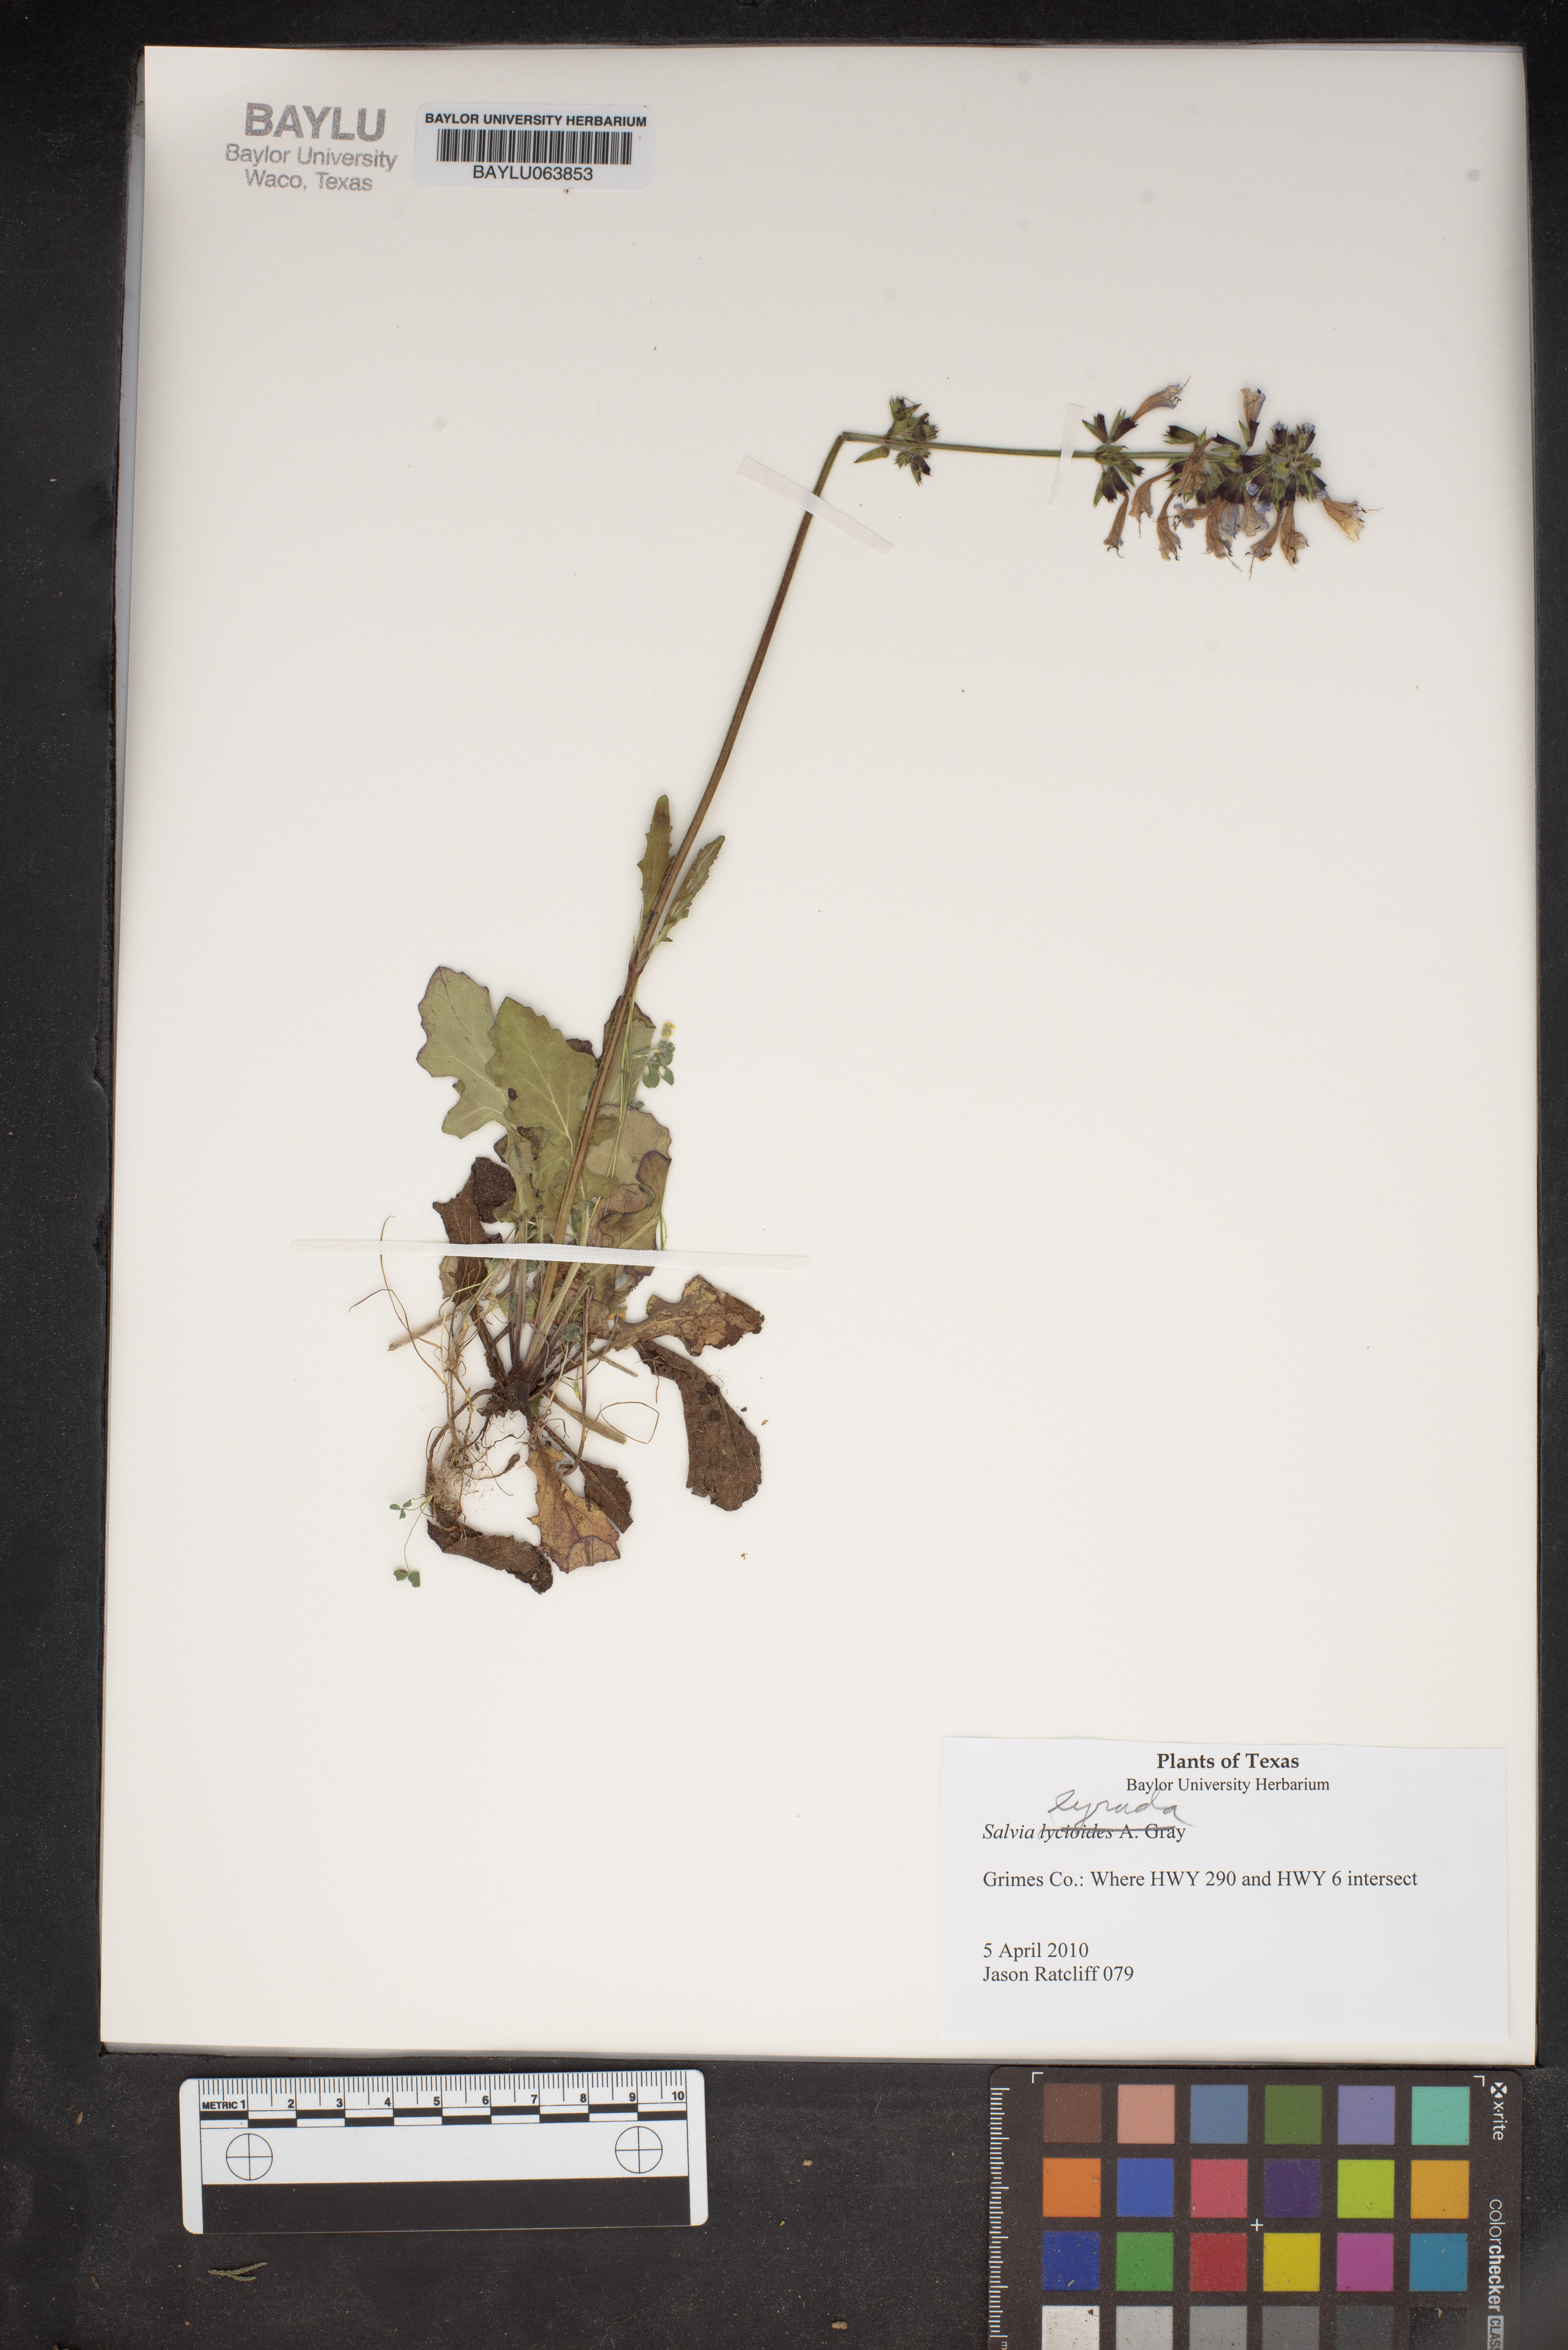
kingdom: Plantae
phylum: Tracheophyta
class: Magnoliopsida
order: Lamiales
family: Lamiaceae
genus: Salvia
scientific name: Salvia lyrata
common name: Cancerweed
